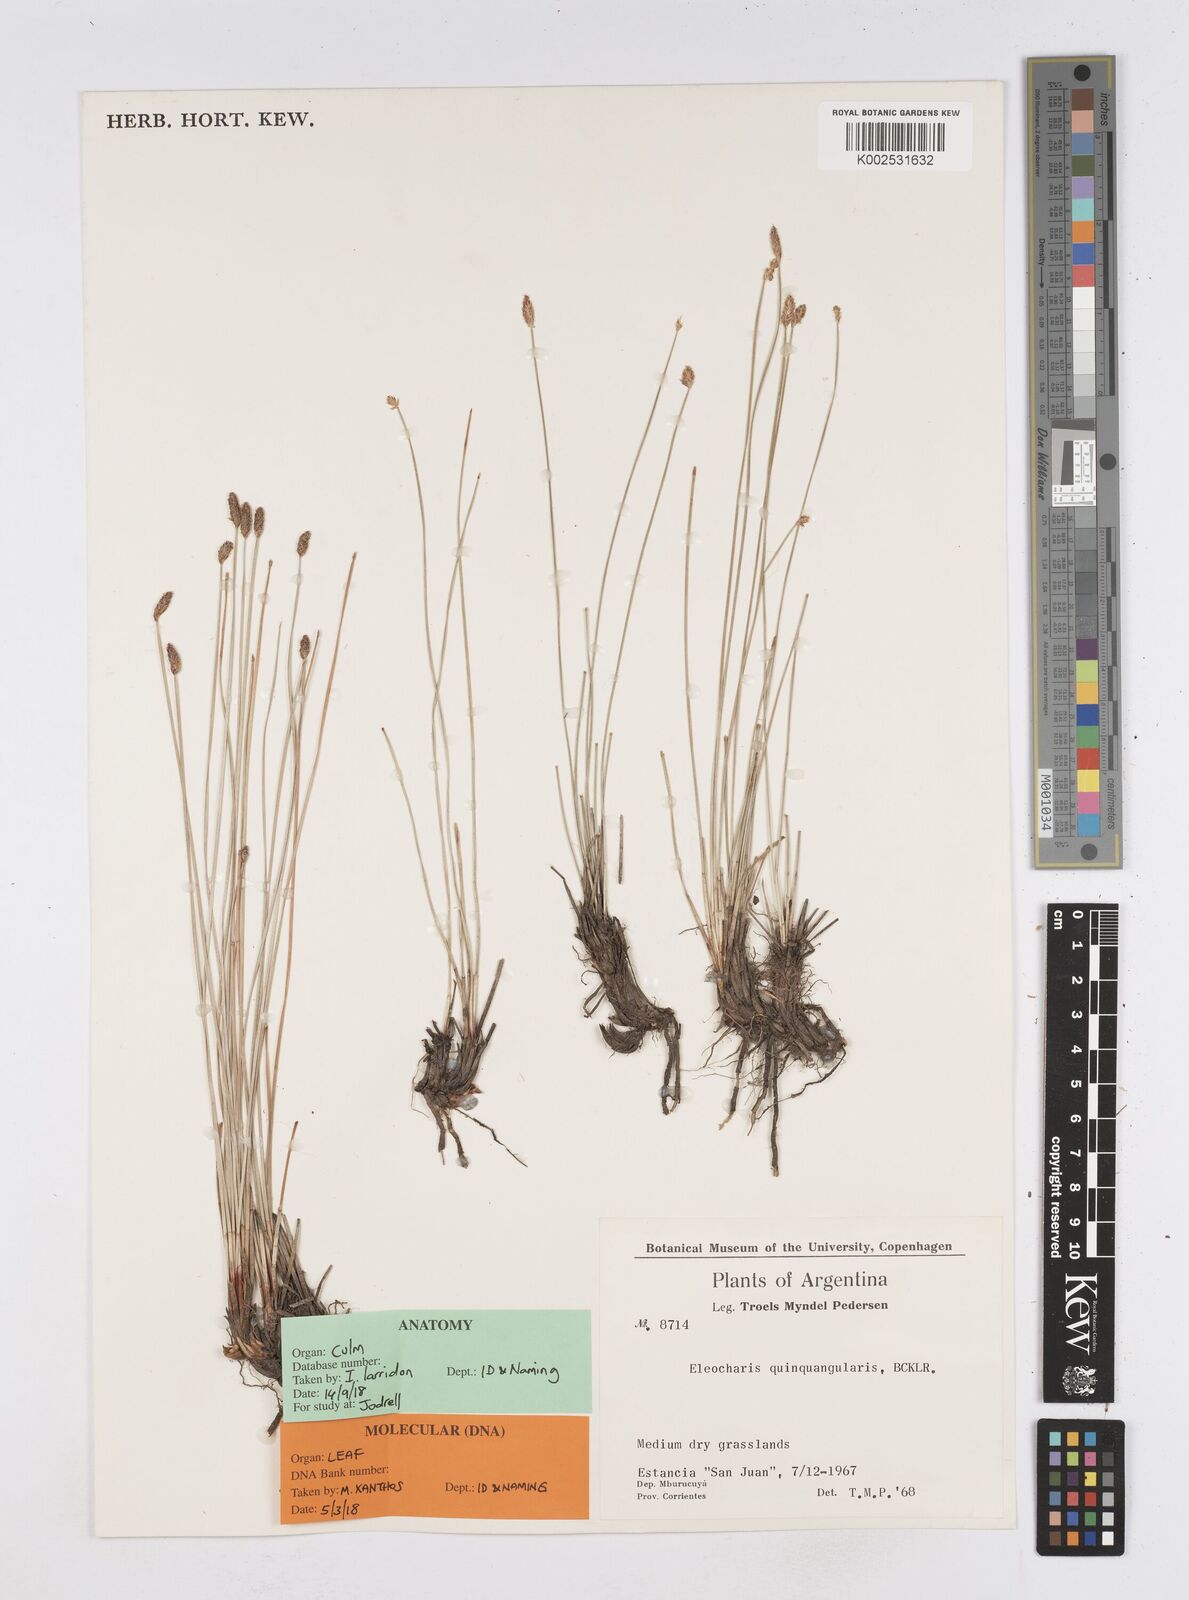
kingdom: Plantae
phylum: Tracheophyta
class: Liliopsida
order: Poales
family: Cyperaceae
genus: Eleocharis
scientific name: Eleocharis emarginata
